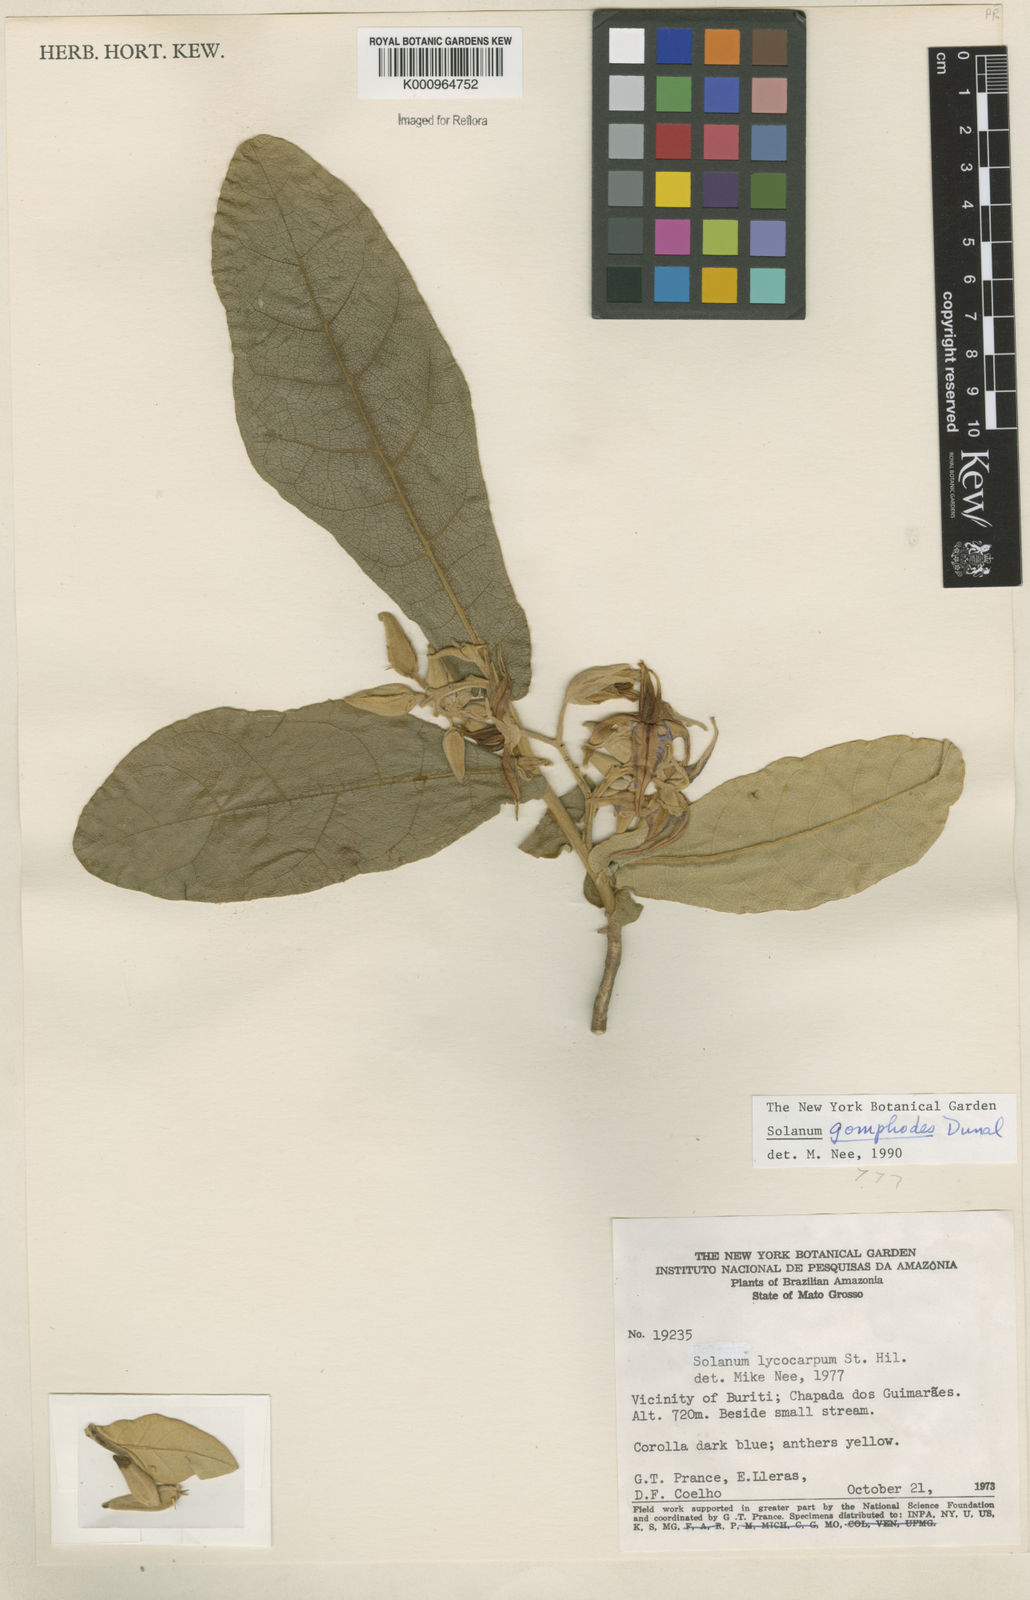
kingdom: Plantae
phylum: Tracheophyta
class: Magnoliopsida
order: Solanales
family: Solanaceae
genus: Solanum
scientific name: Solanum gomphodes
